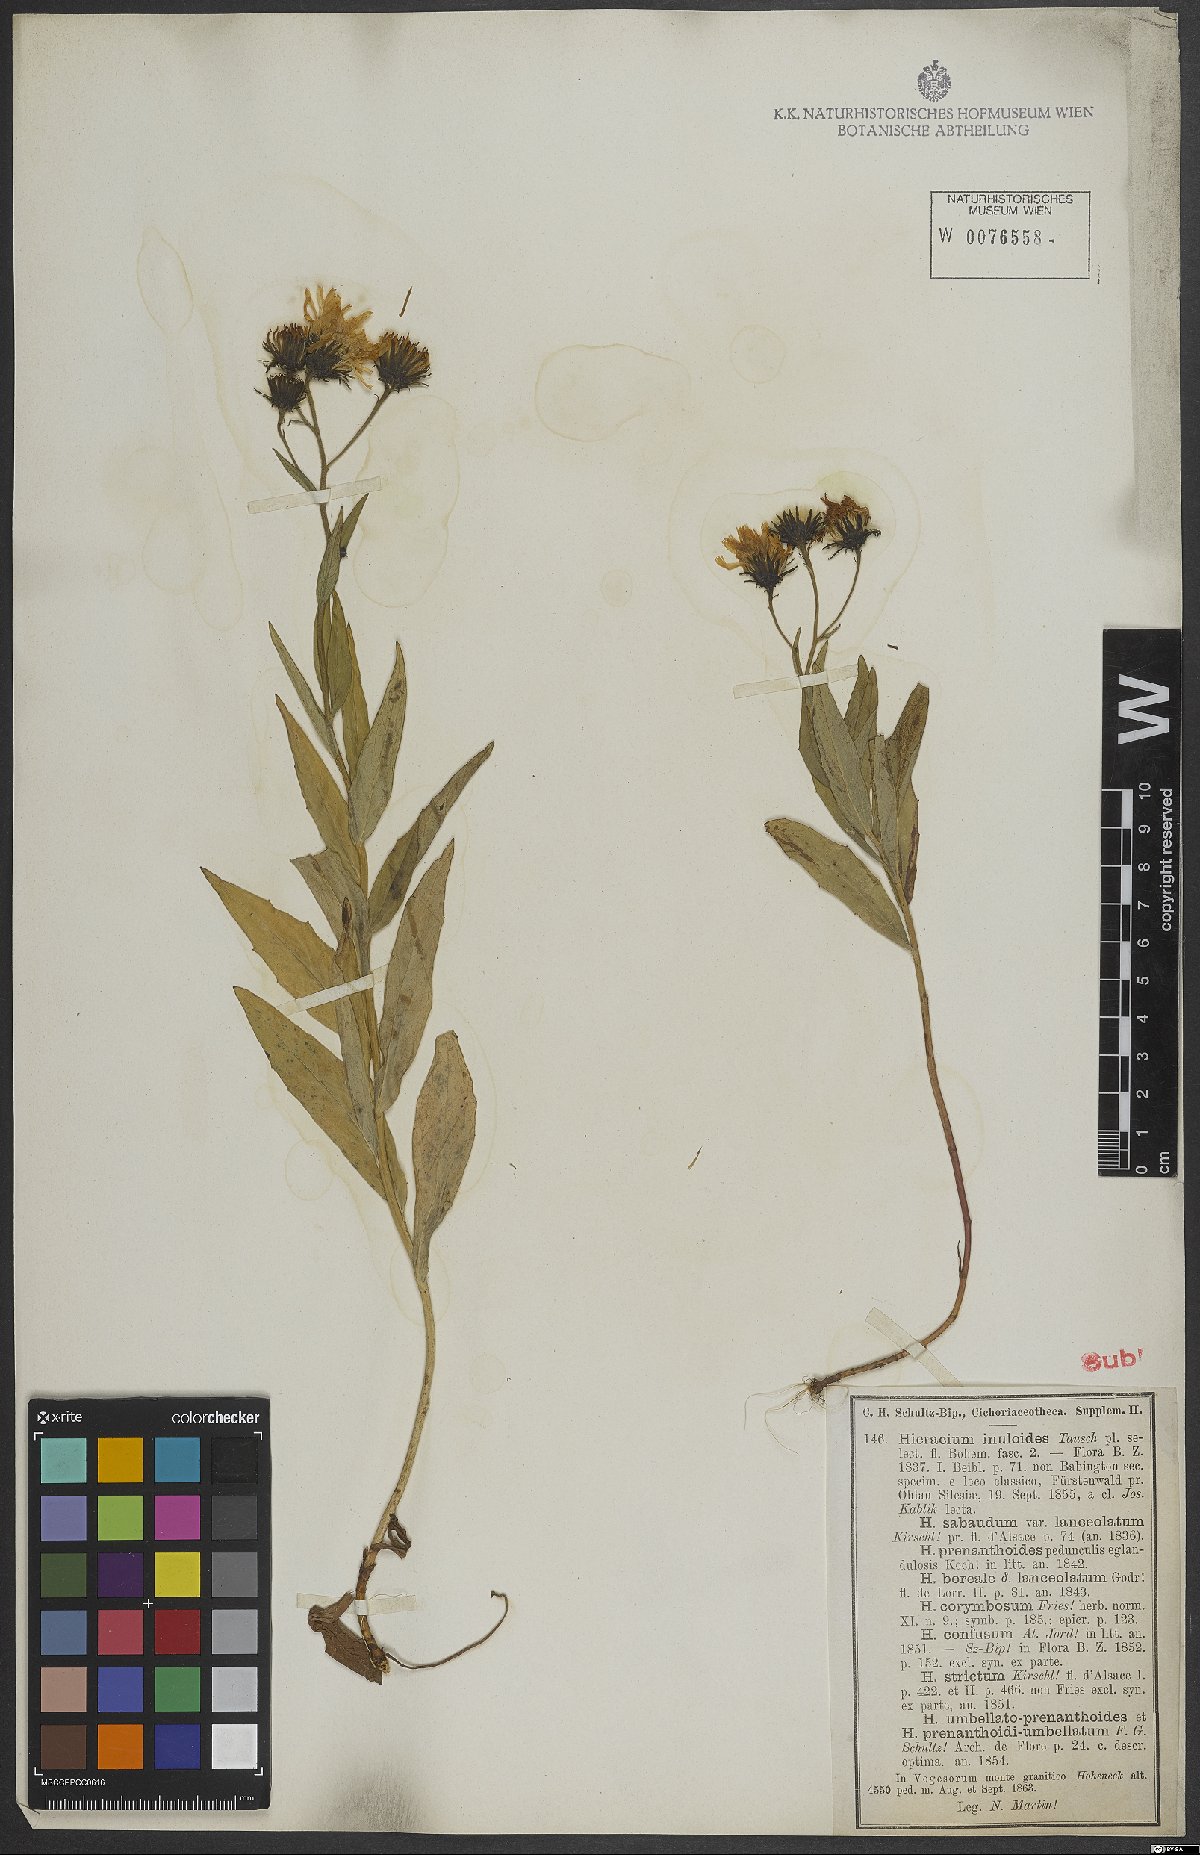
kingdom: Plantae
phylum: Tracheophyta
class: Magnoliopsida
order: Asterales
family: Asteraceae
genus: Hieracium
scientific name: Hieracium inuloides
